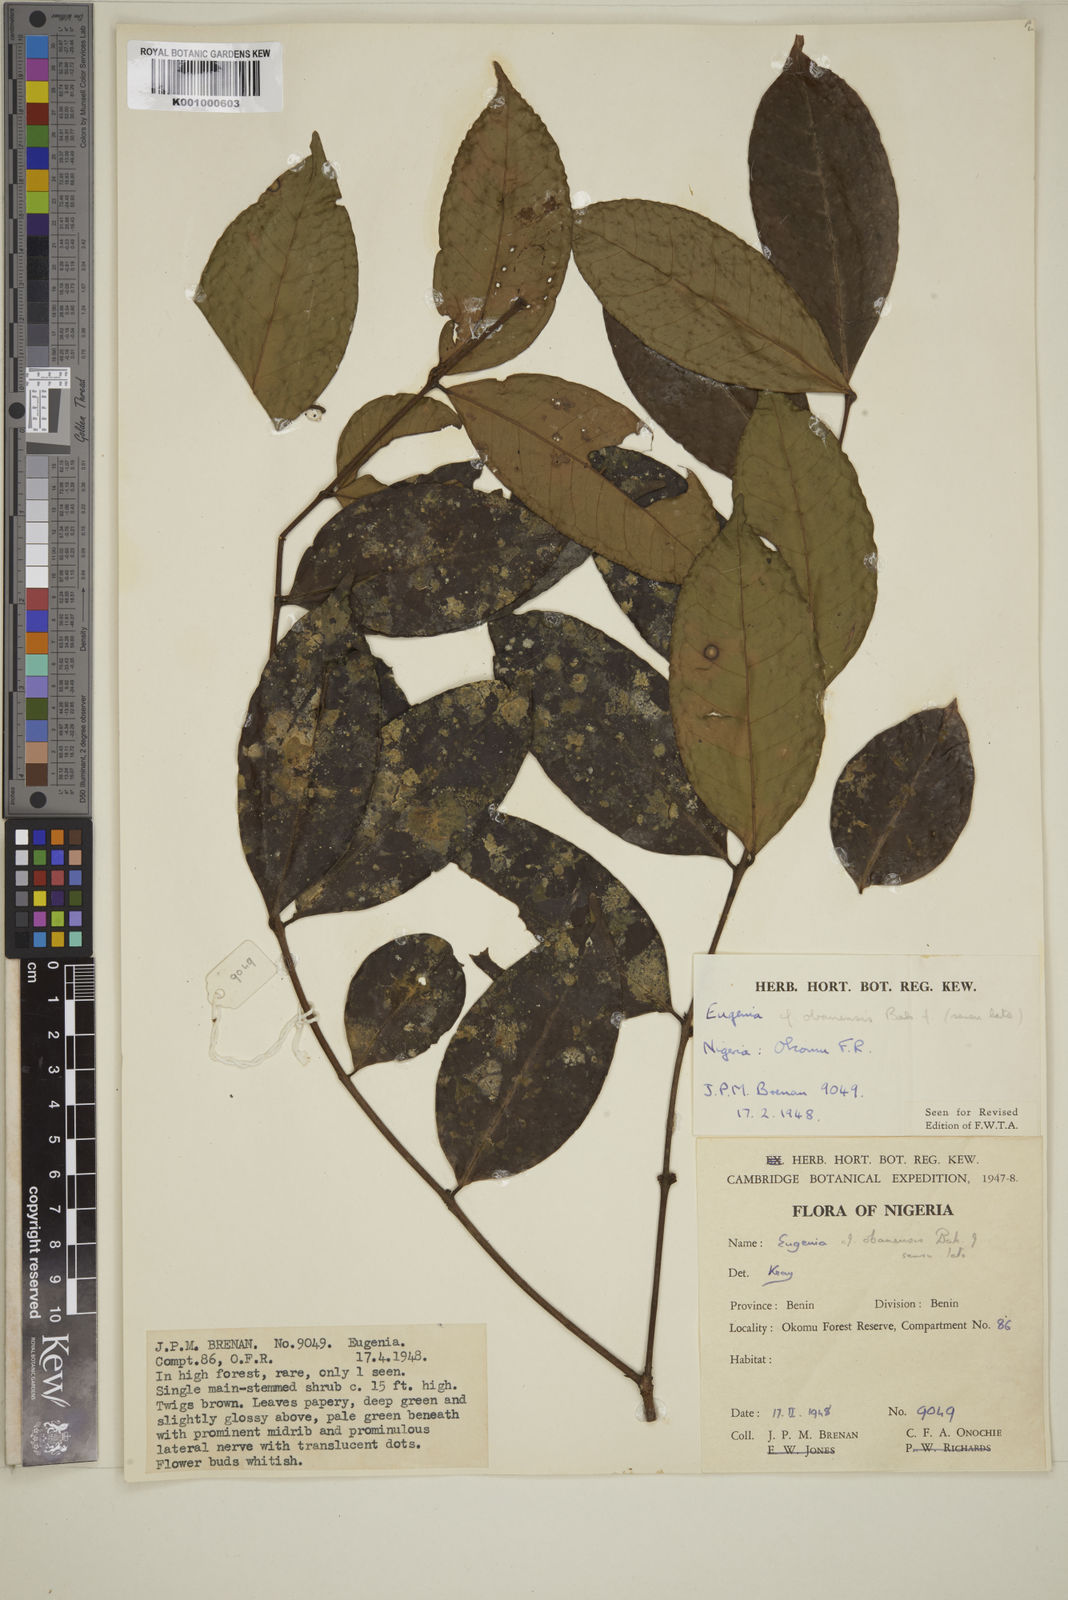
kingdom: Plantae
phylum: Tracheophyta
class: Magnoliopsida
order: Myrtales
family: Myrtaceae
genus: Eugenia
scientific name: Eugenia obanensis
